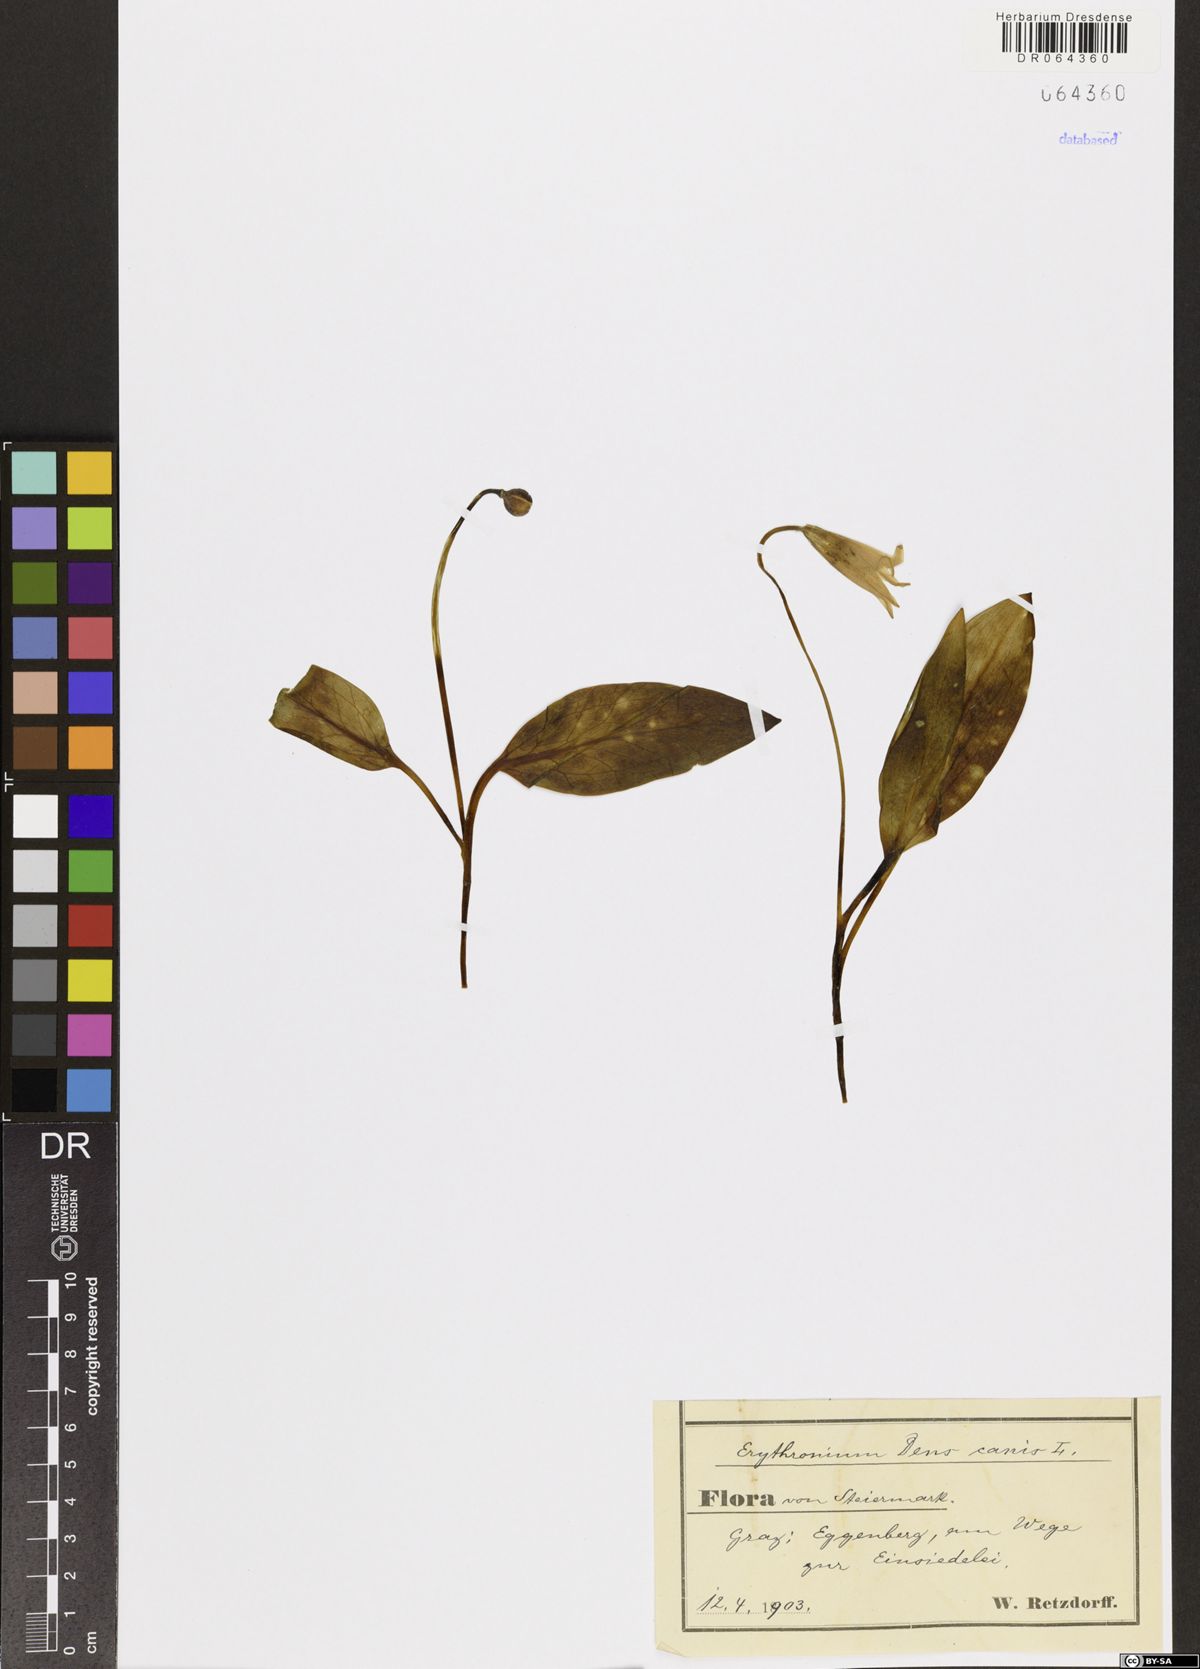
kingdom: Plantae
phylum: Tracheophyta
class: Liliopsida
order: Liliales
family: Liliaceae
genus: Erythronium
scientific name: Erythronium dens-canis
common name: Dog's-tooth-violet
